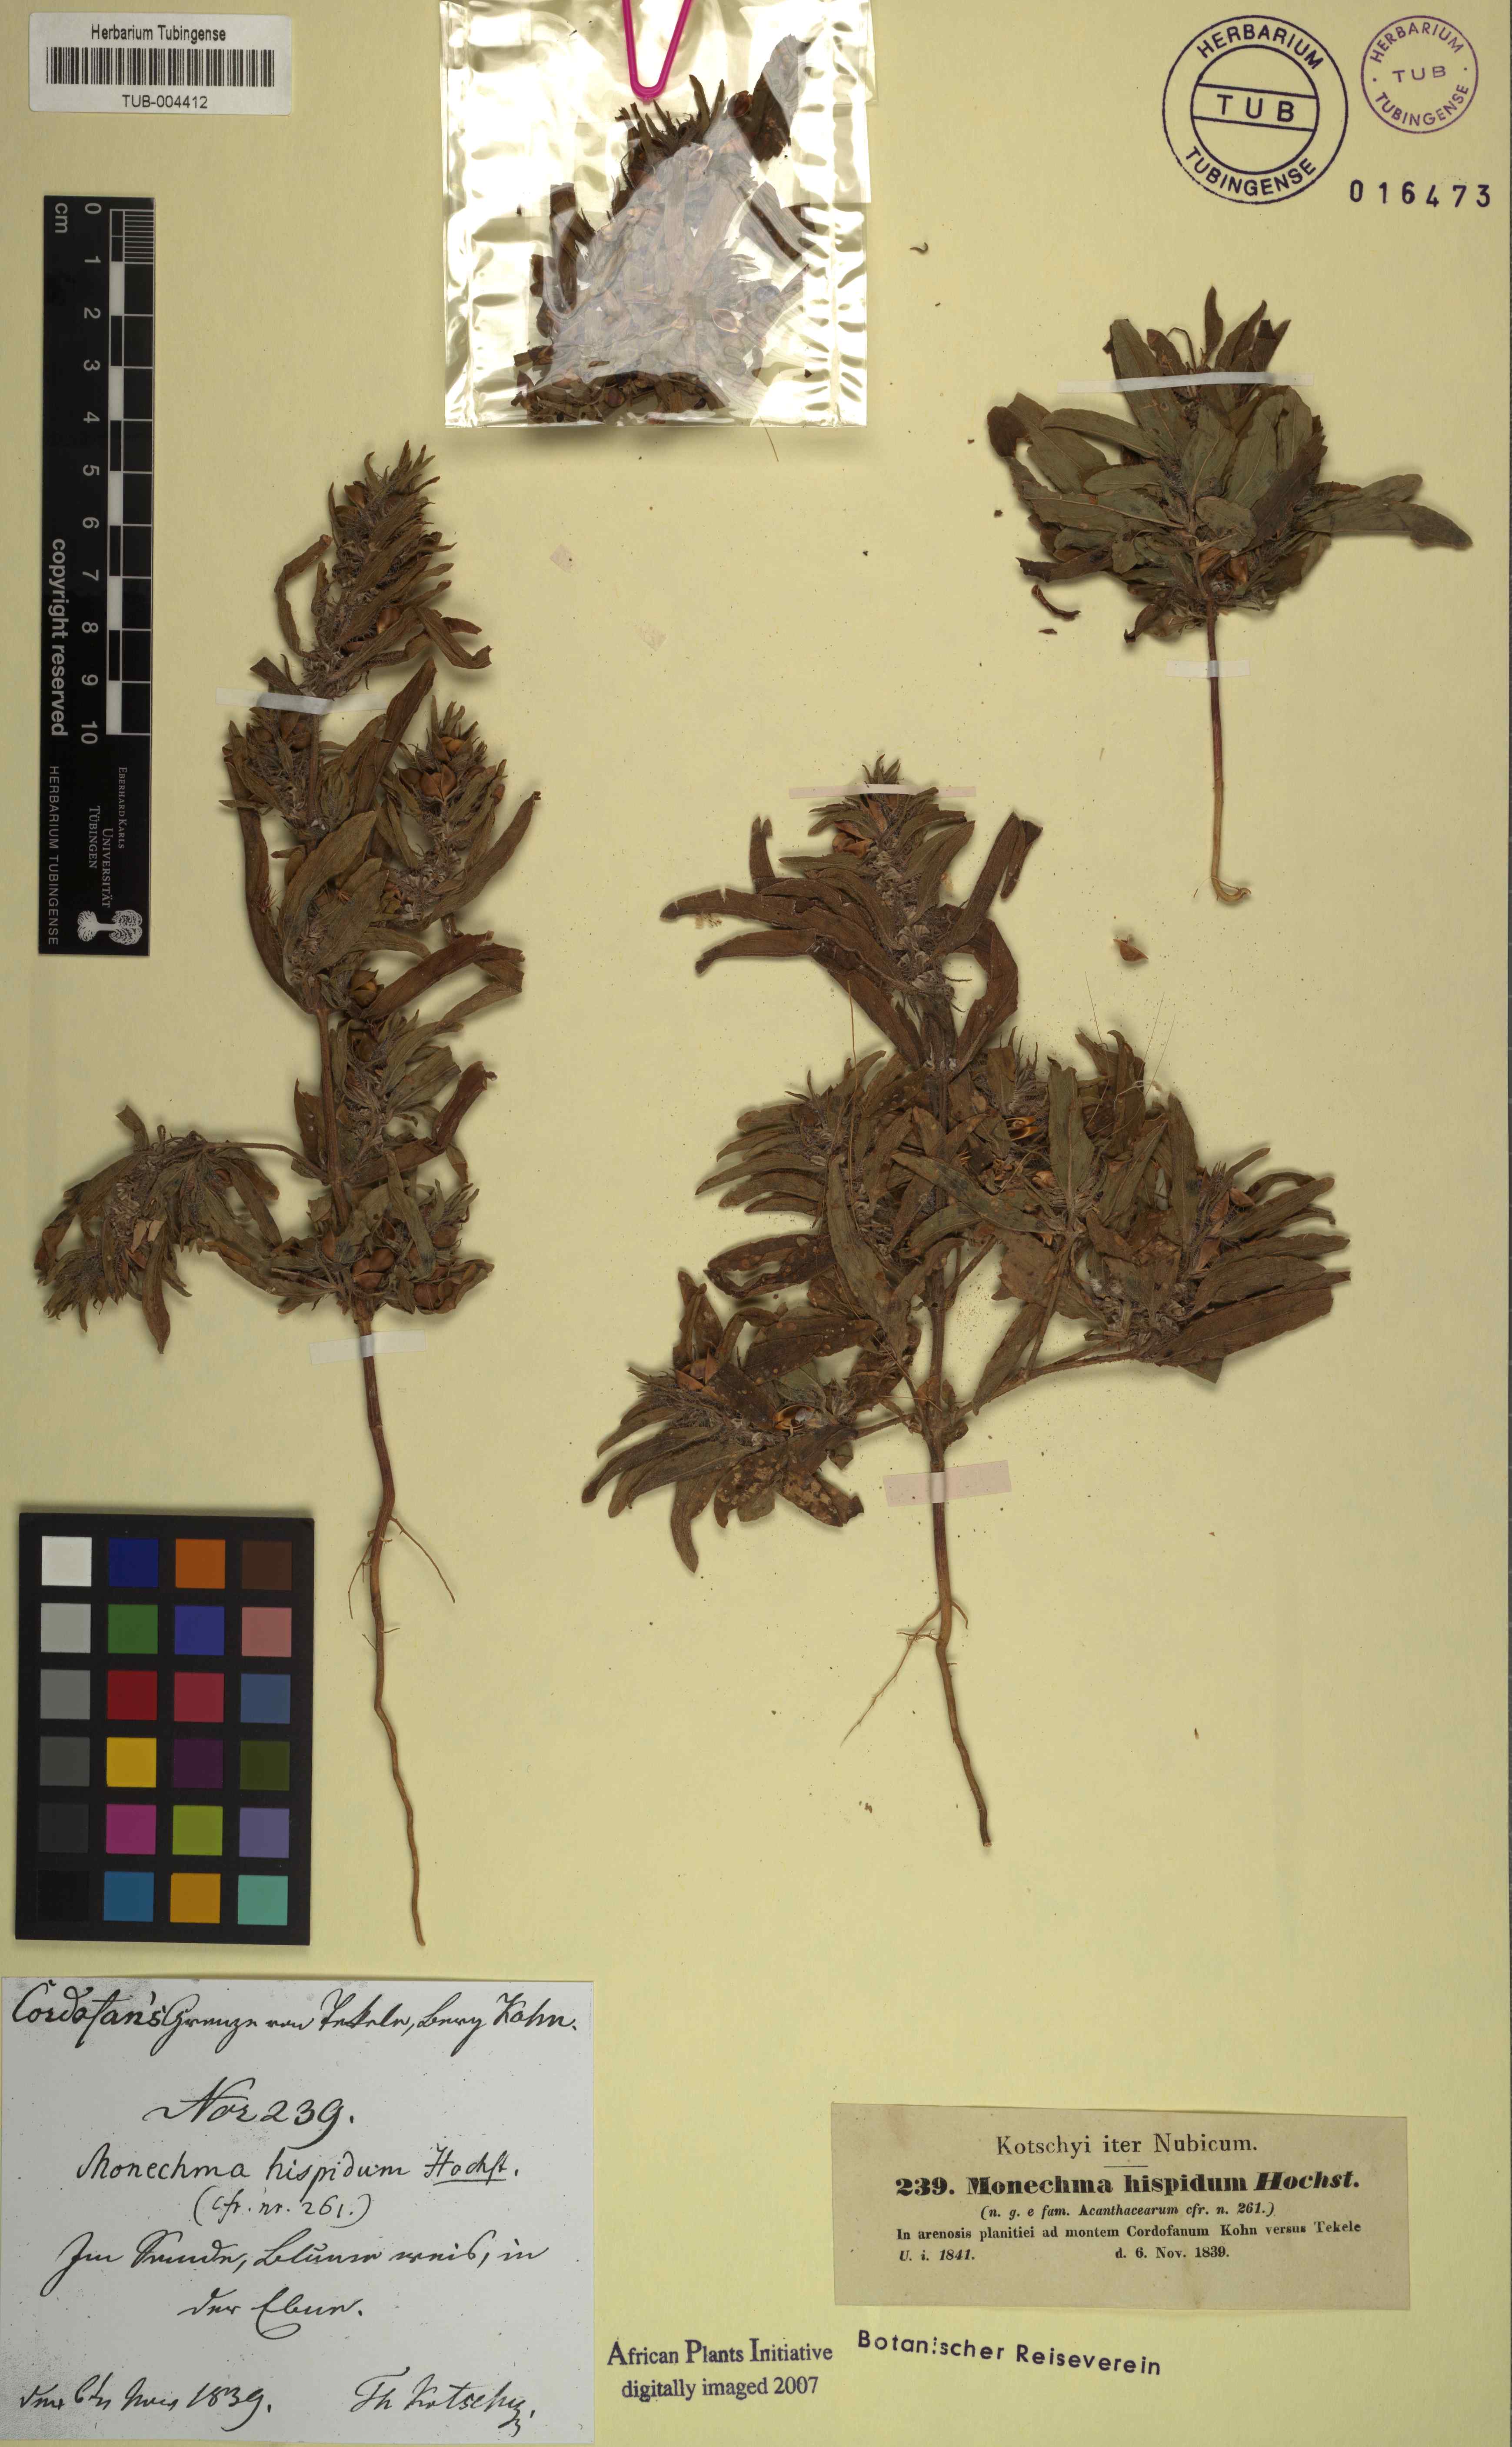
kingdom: Plantae
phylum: Tracheophyta
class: Magnoliopsida
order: Lamiales
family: Acanthaceae
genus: Pogonospermum
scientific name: Pogonospermum ciliare
